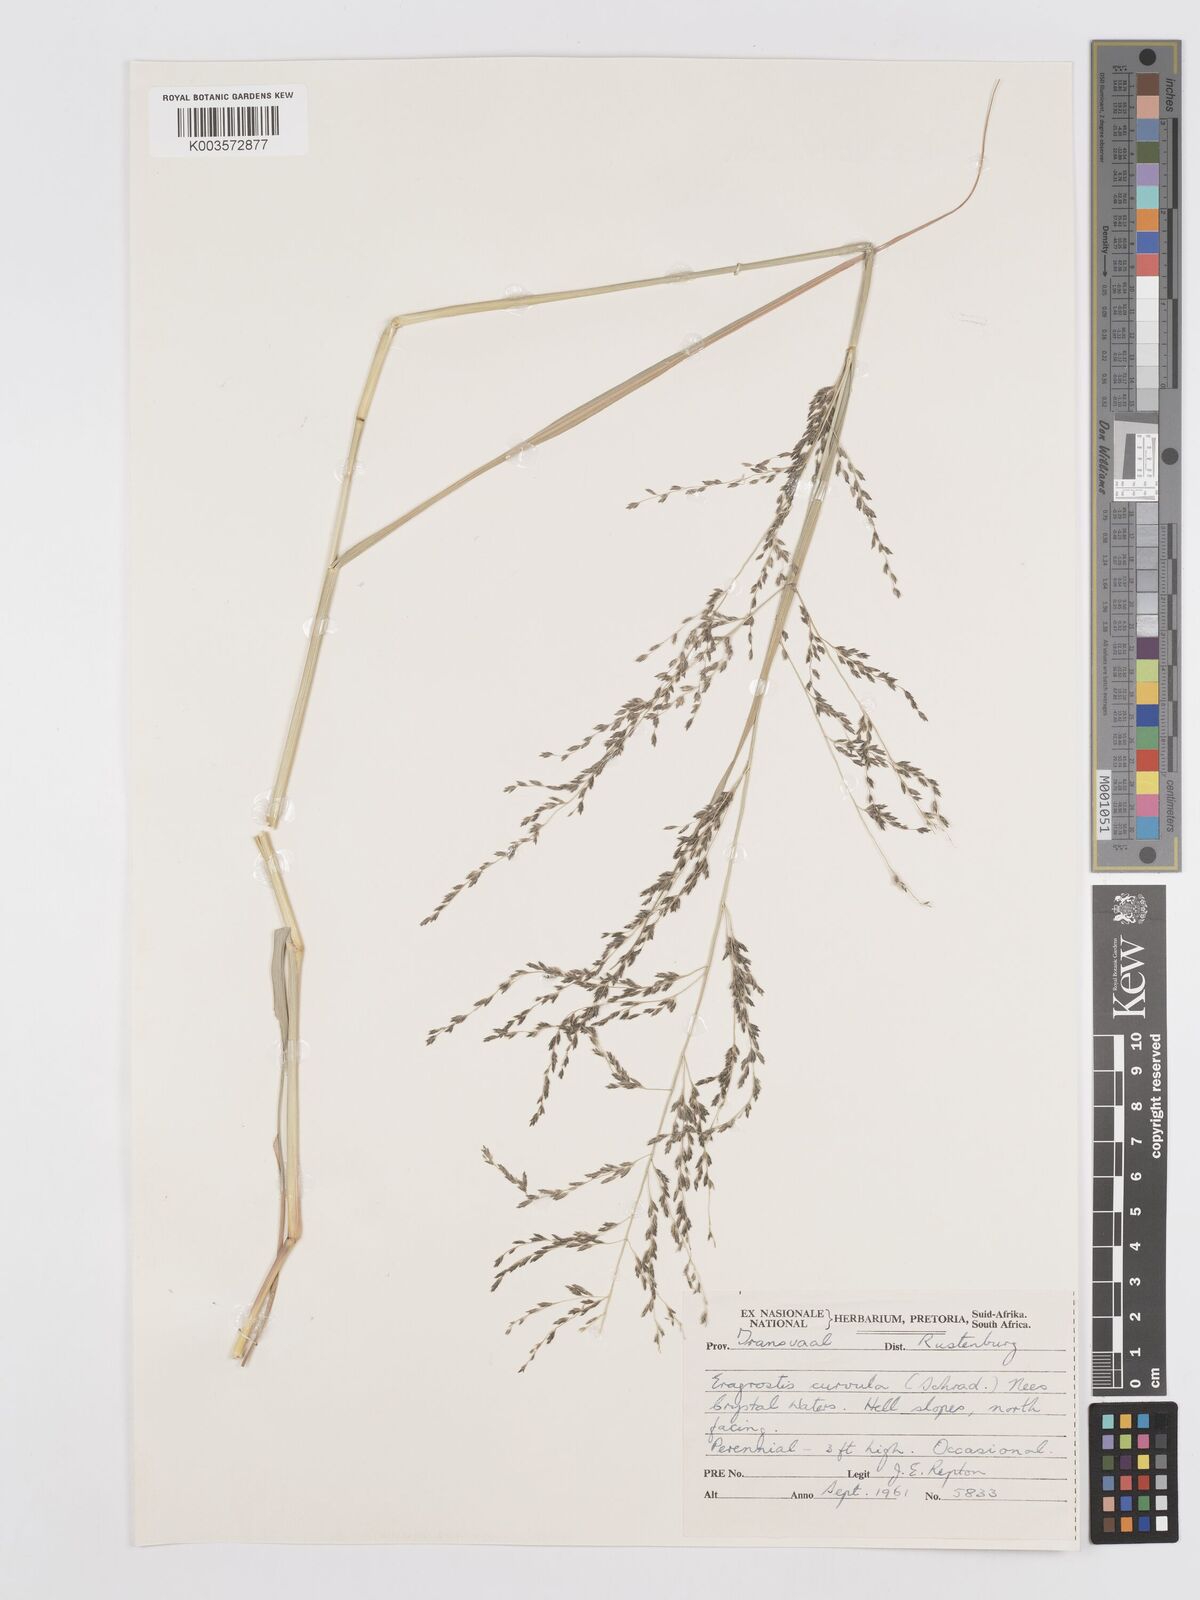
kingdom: Plantae
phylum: Tracheophyta
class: Liliopsida
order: Poales
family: Poaceae
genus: Eragrostis
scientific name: Eragrostis curvula
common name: African love-grass
